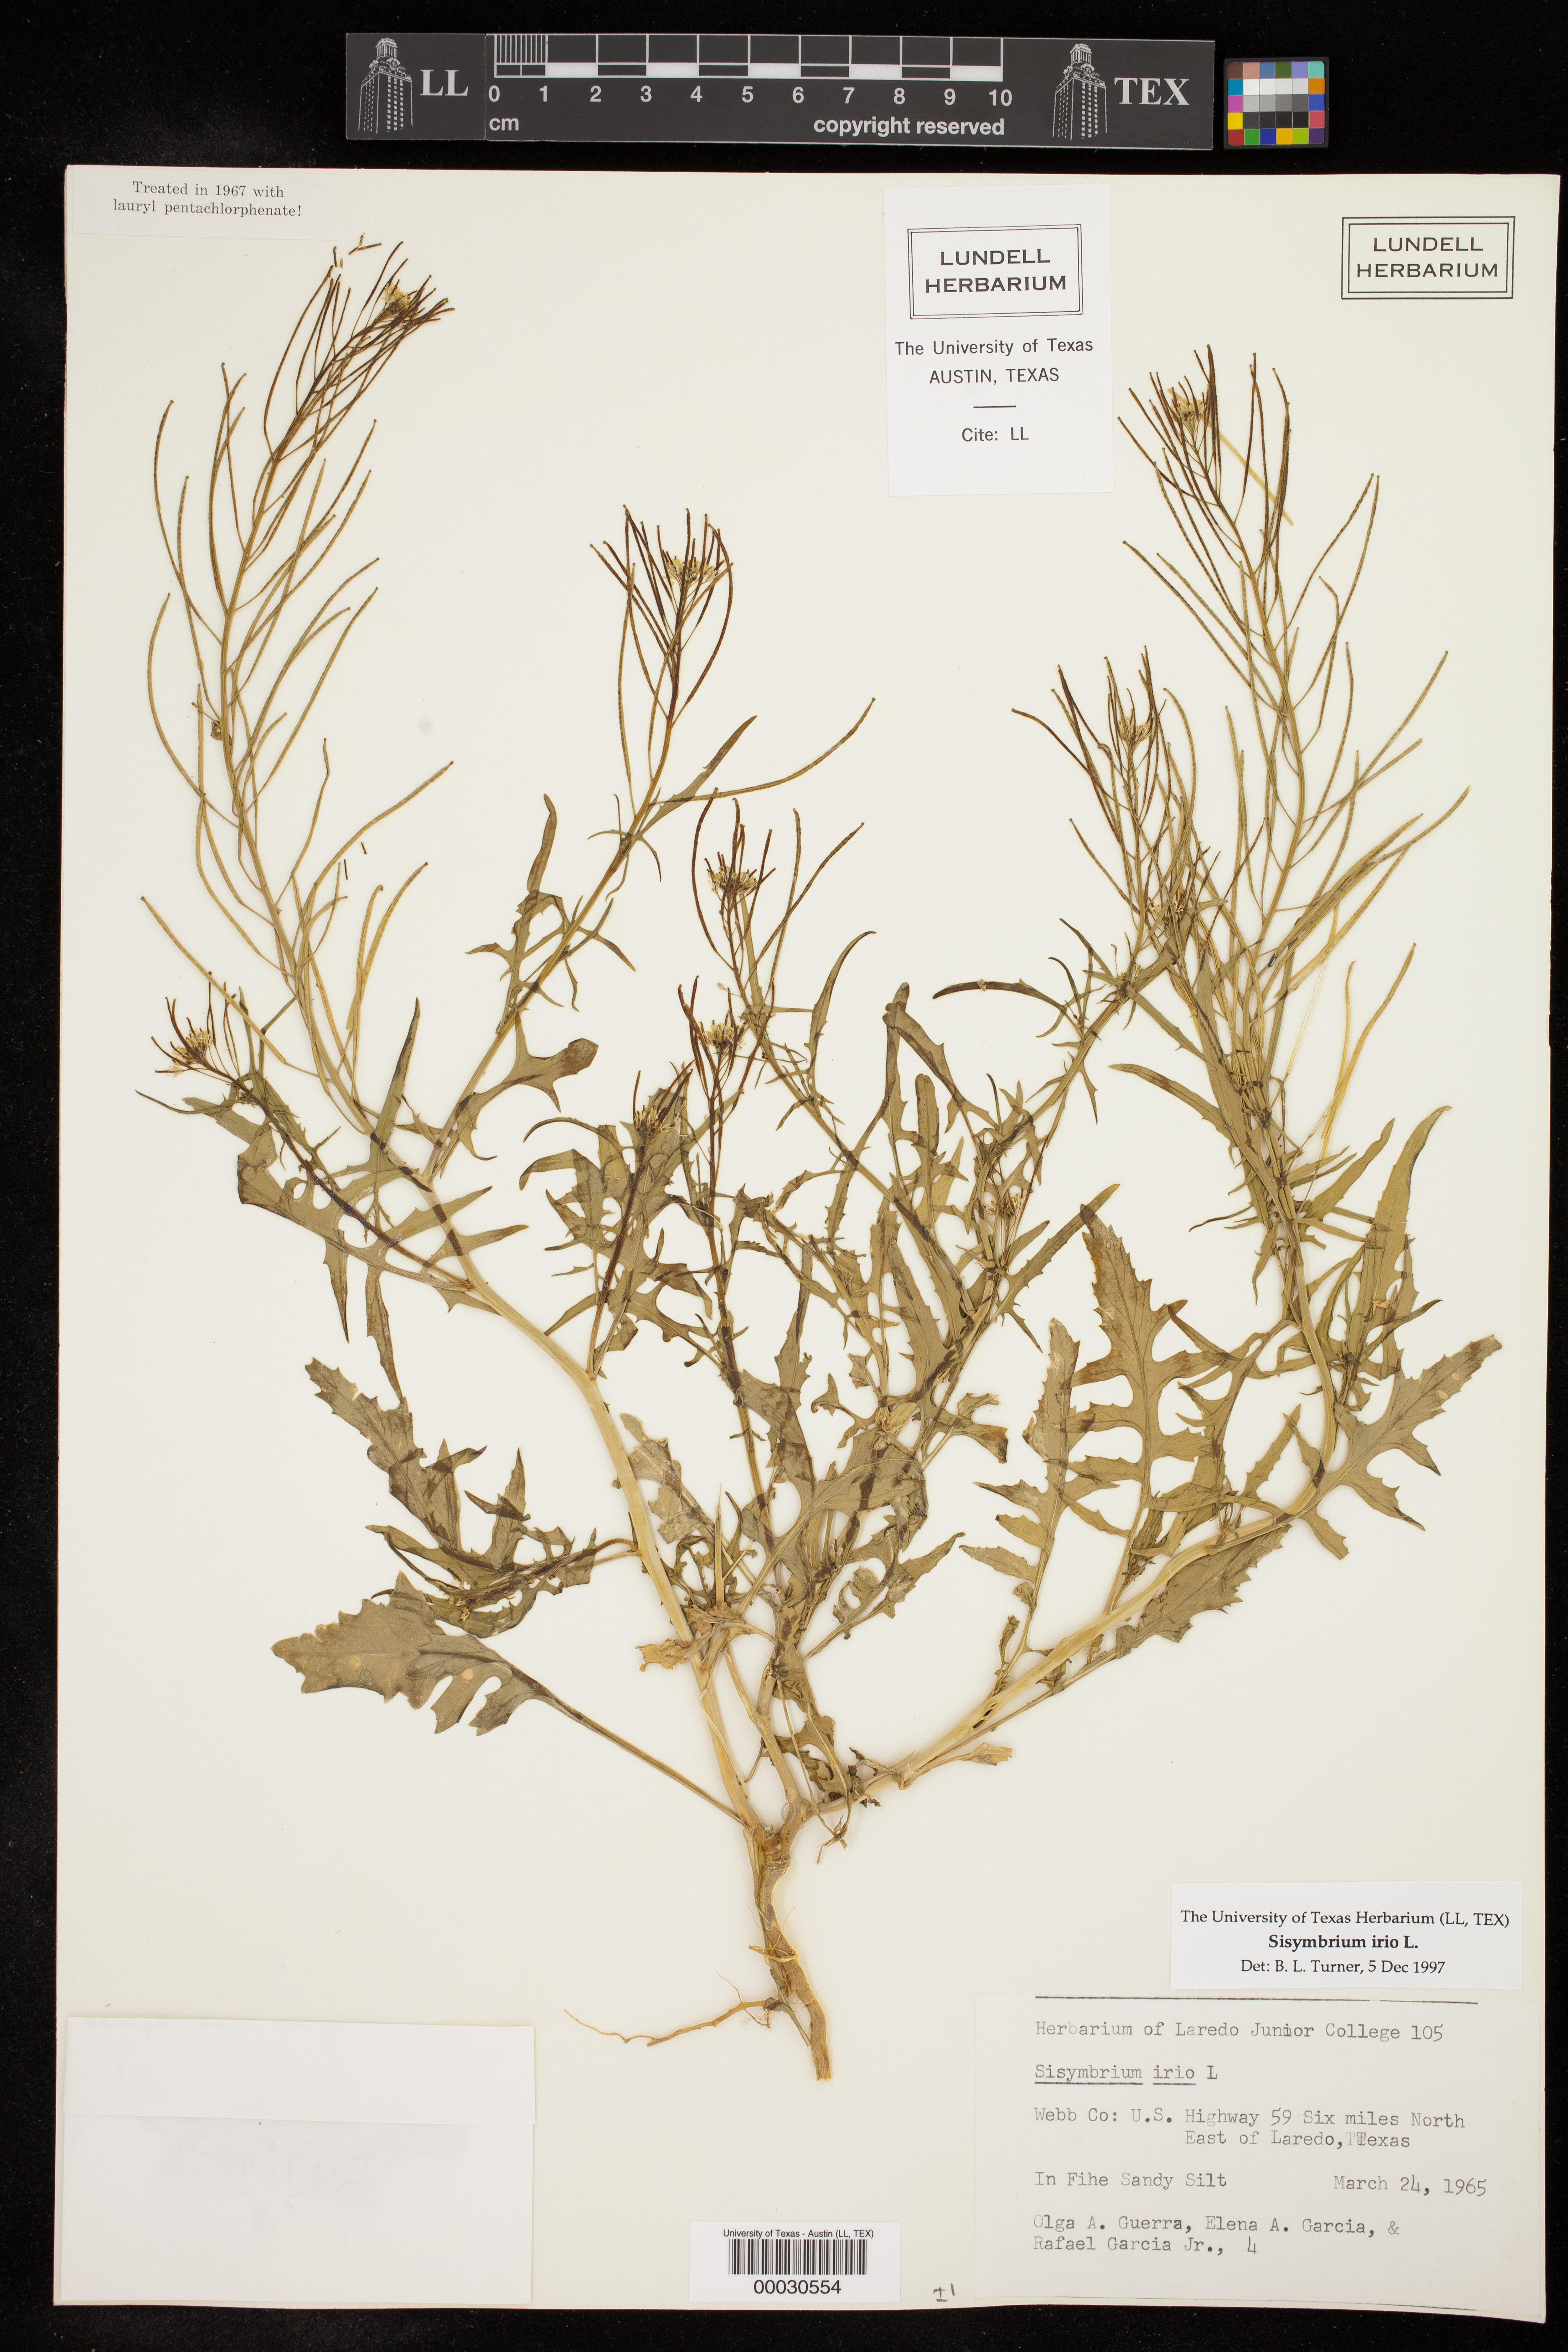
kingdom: Plantae
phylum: Tracheophyta
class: Magnoliopsida
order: Brassicales
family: Brassicaceae
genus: Sisymbrium
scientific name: Sisymbrium irio
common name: London rocket
